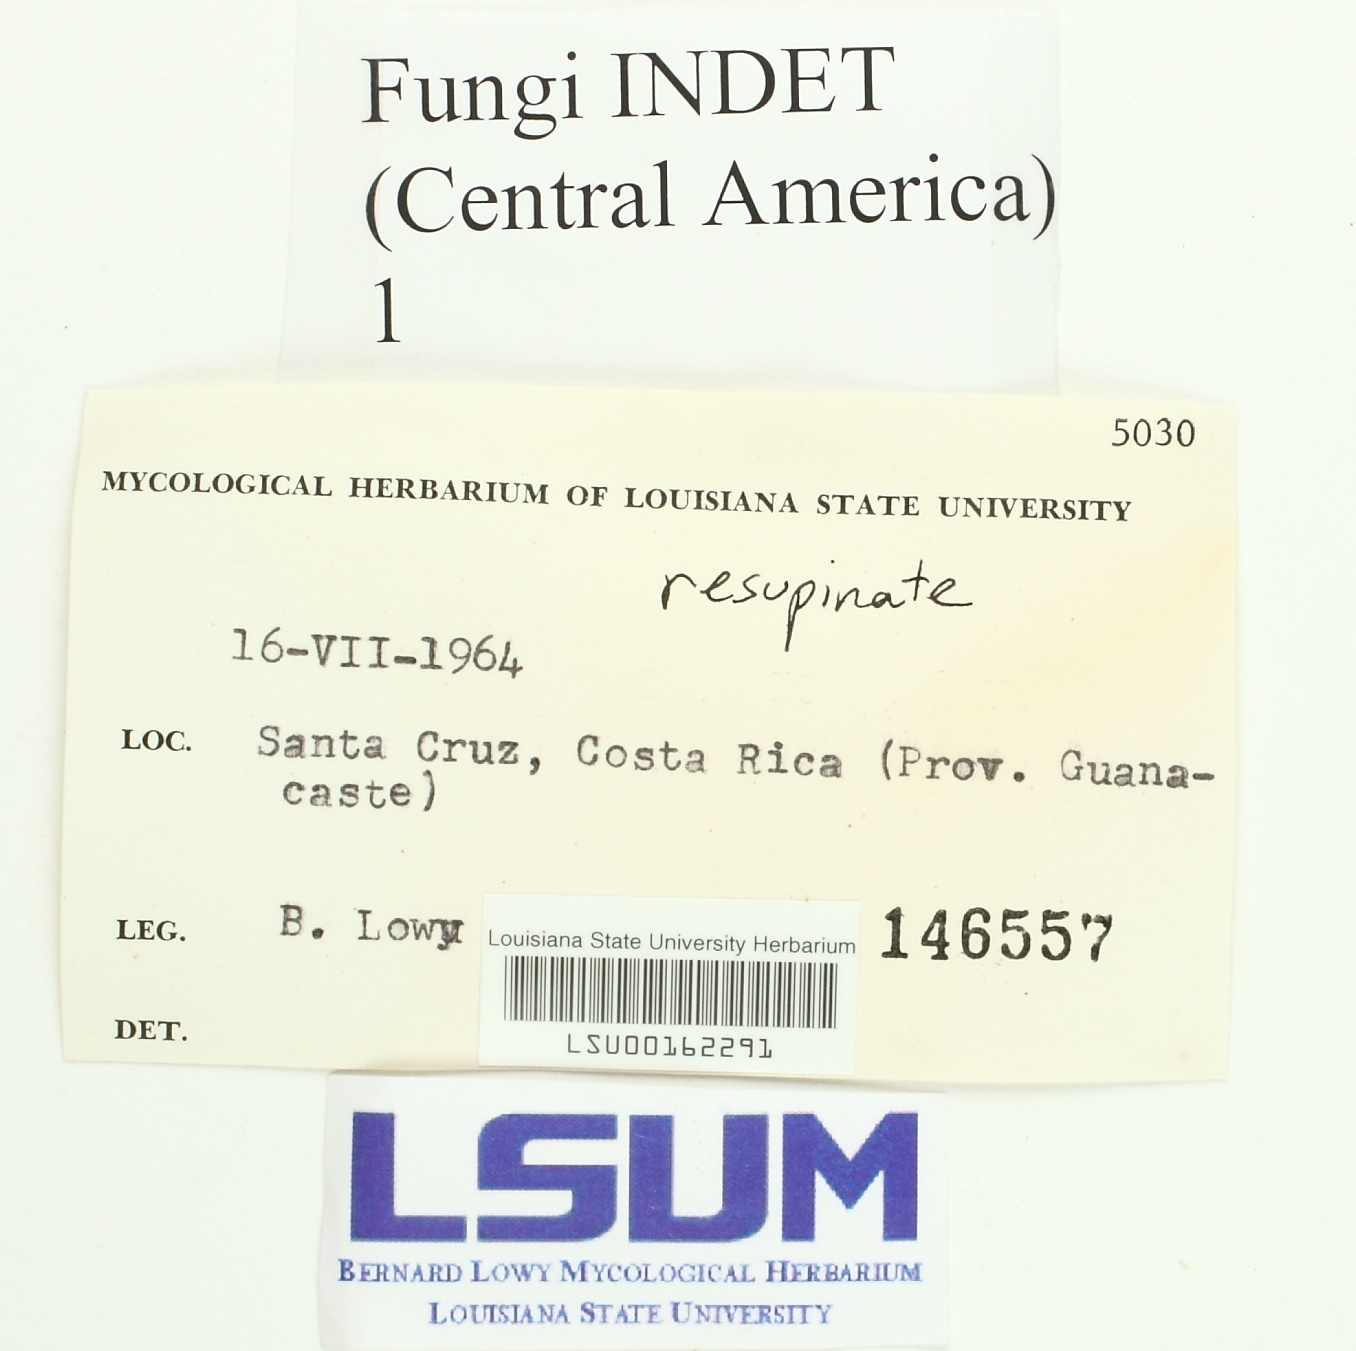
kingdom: Fungi
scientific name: Fungi
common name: Fungi
